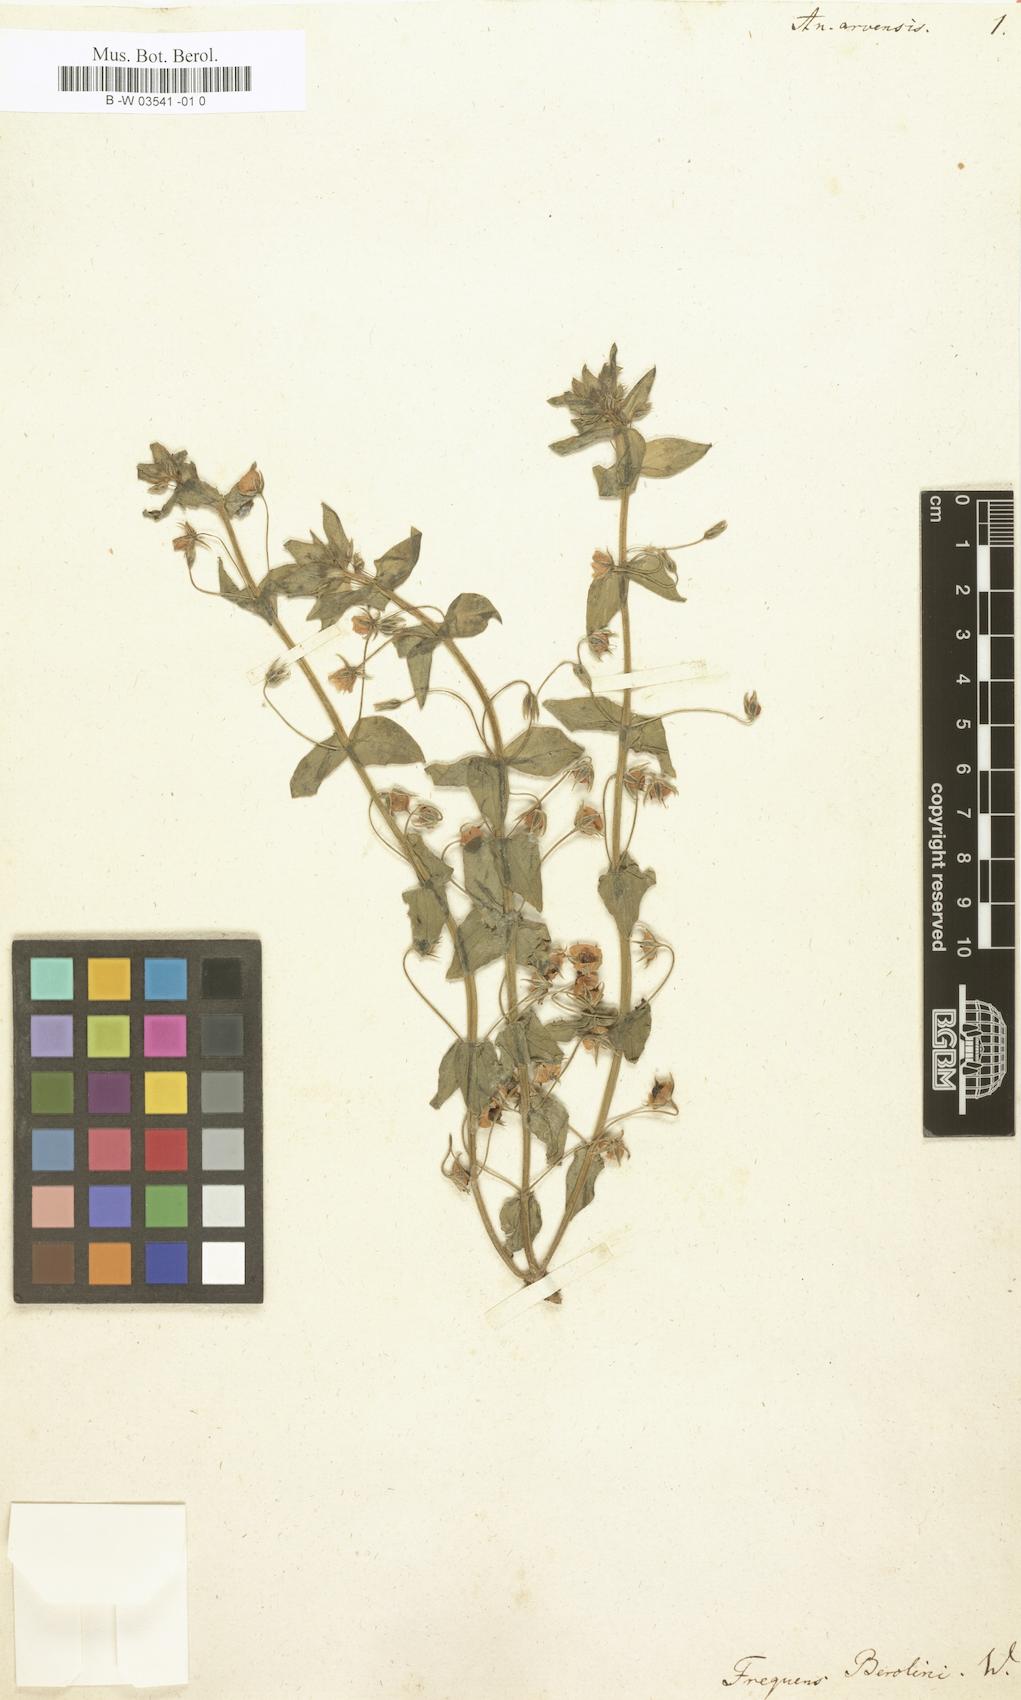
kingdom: Plantae
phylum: Tracheophyta
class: Magnoliopsida
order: Ericales
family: Primulaceae
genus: Lysimachia
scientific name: Lysimachia arvensis
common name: Scarlet pimpernel
